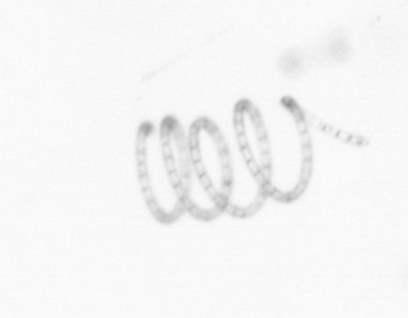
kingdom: Chromista
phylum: Ochrophyta
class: Bacillariophyceae
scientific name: Bacillariophyceae
